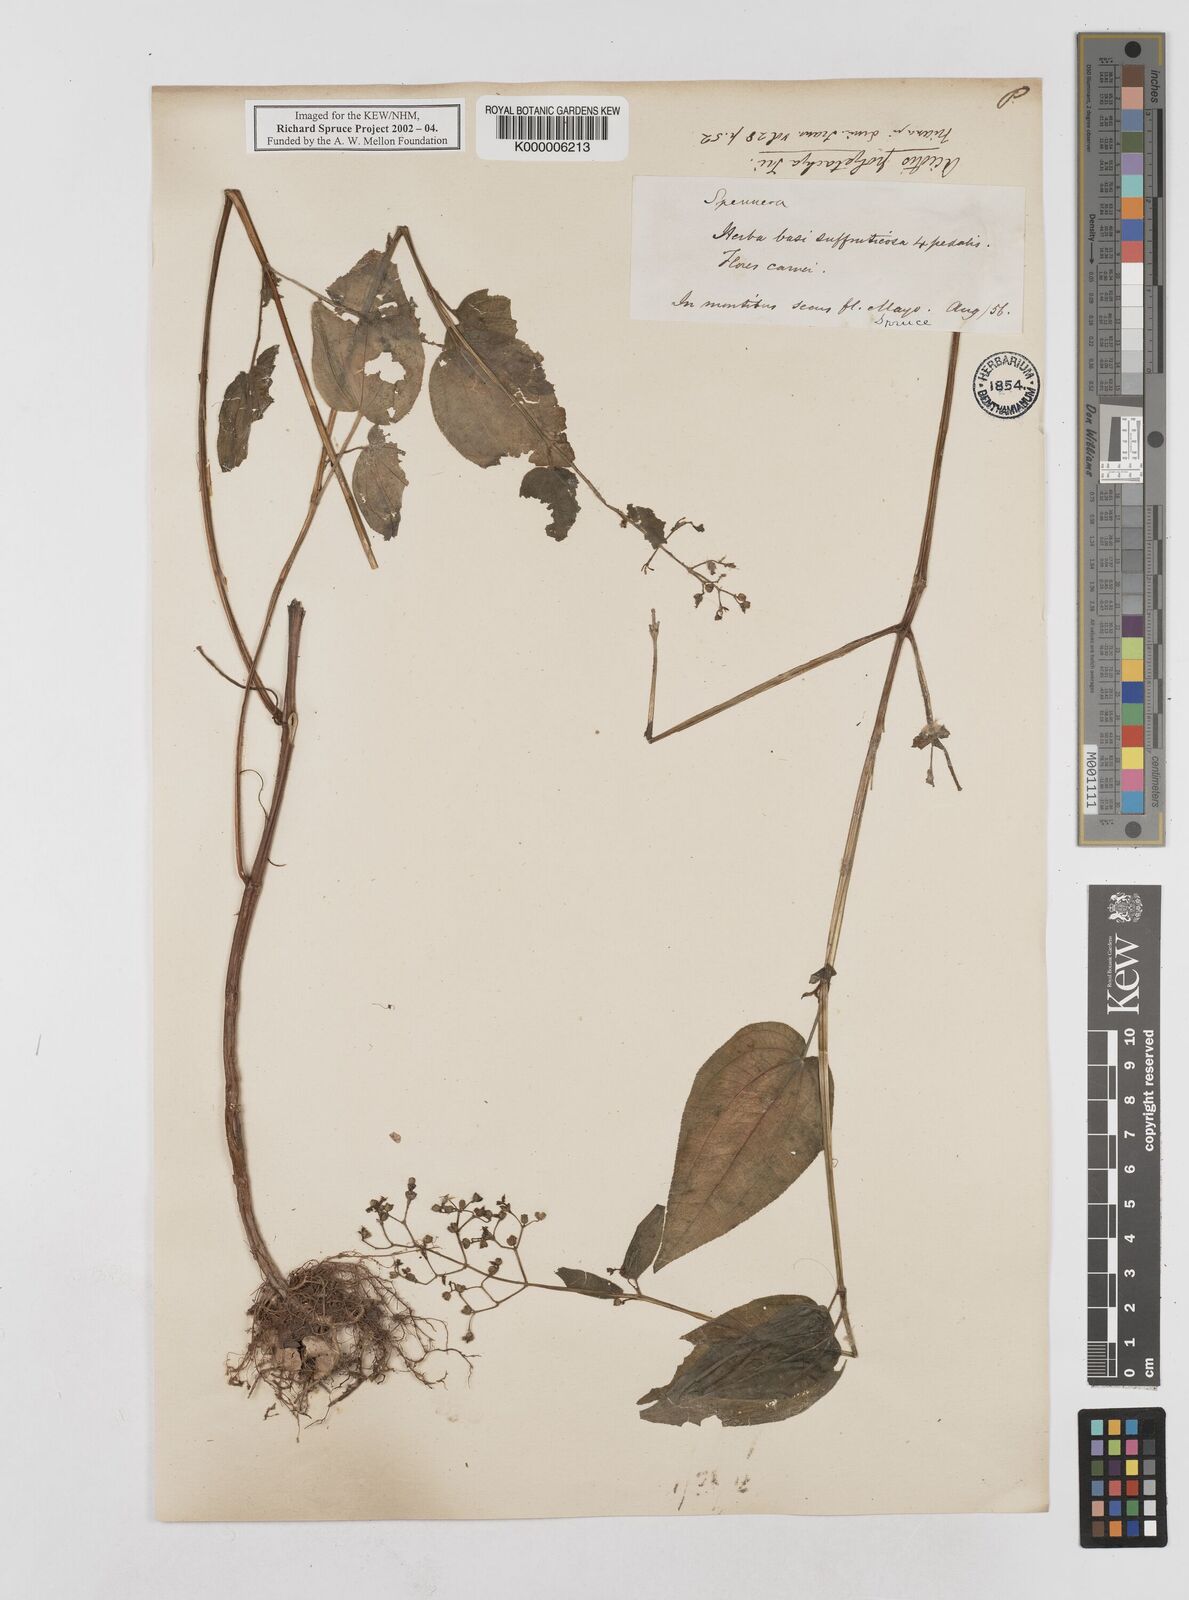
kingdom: Plantae
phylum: Tracheophyta
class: Magnoliopsida
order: Myrtales
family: Melastomataceae
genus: Aciotis
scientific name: Aciotis polystachya
